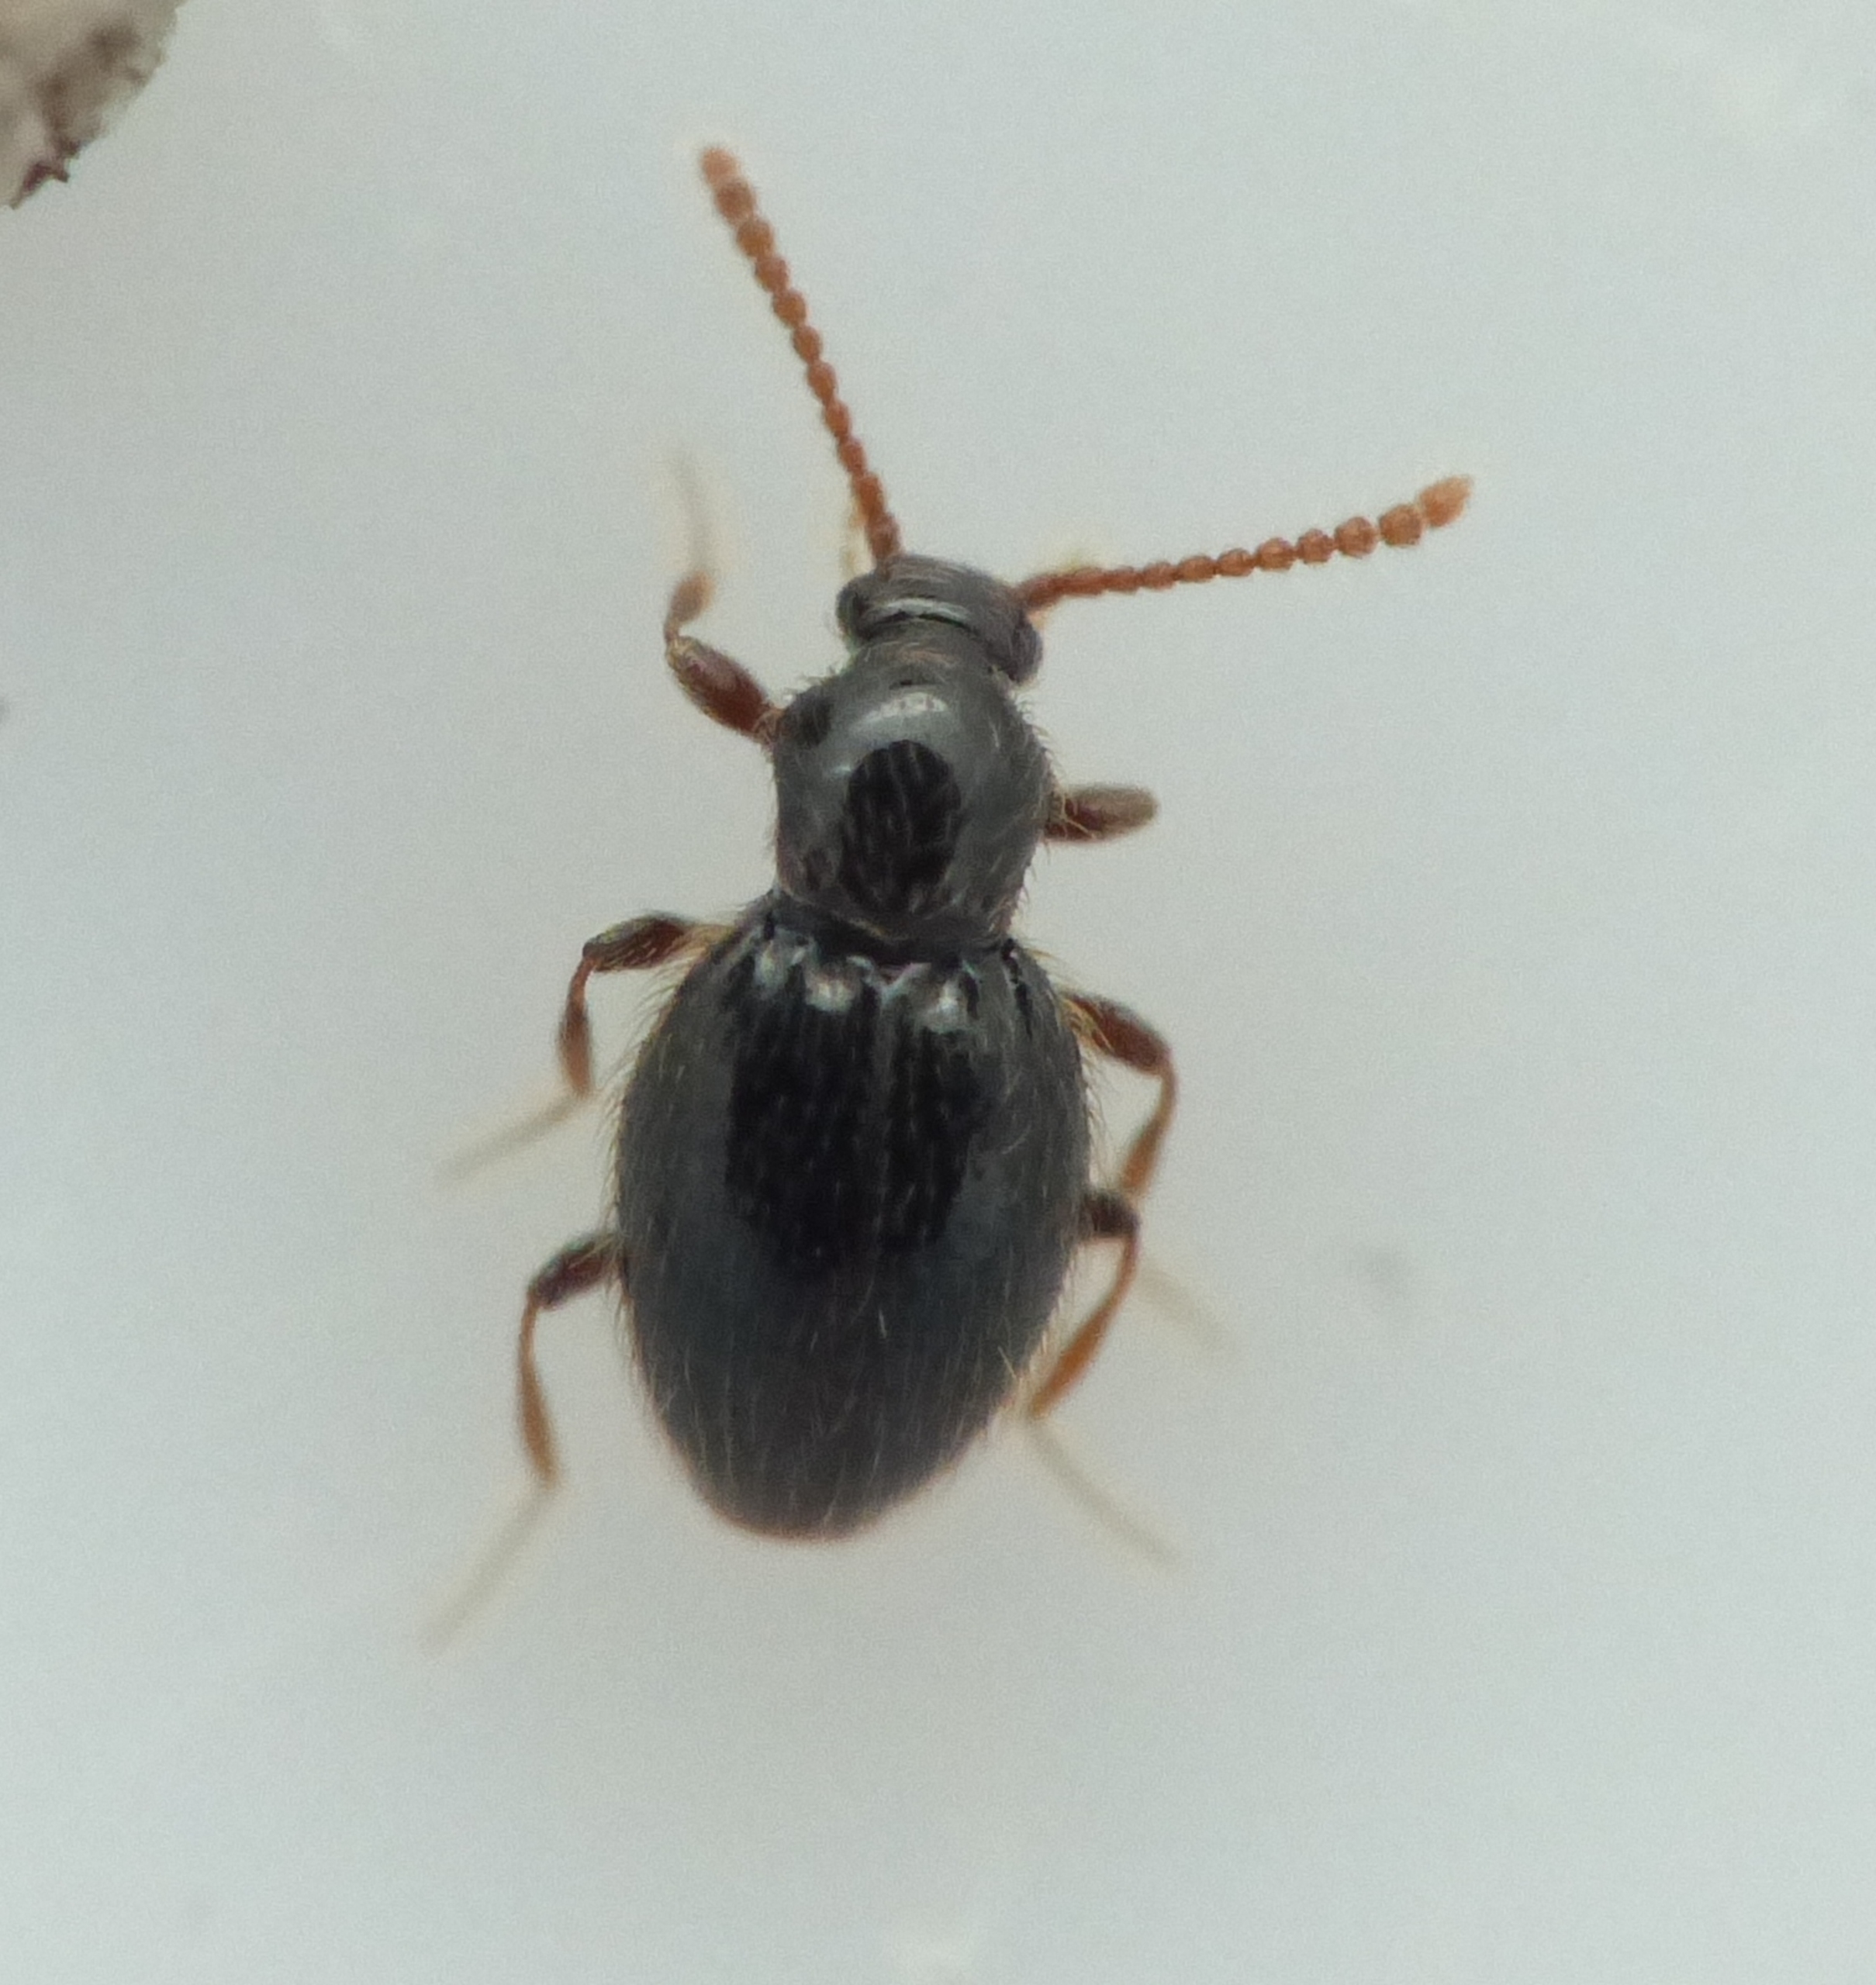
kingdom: Animalia
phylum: Arthropoda
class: Insecta
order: Coleoptera
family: Staphylinidae
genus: Stenichnus
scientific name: Stenichnus scutellaris
